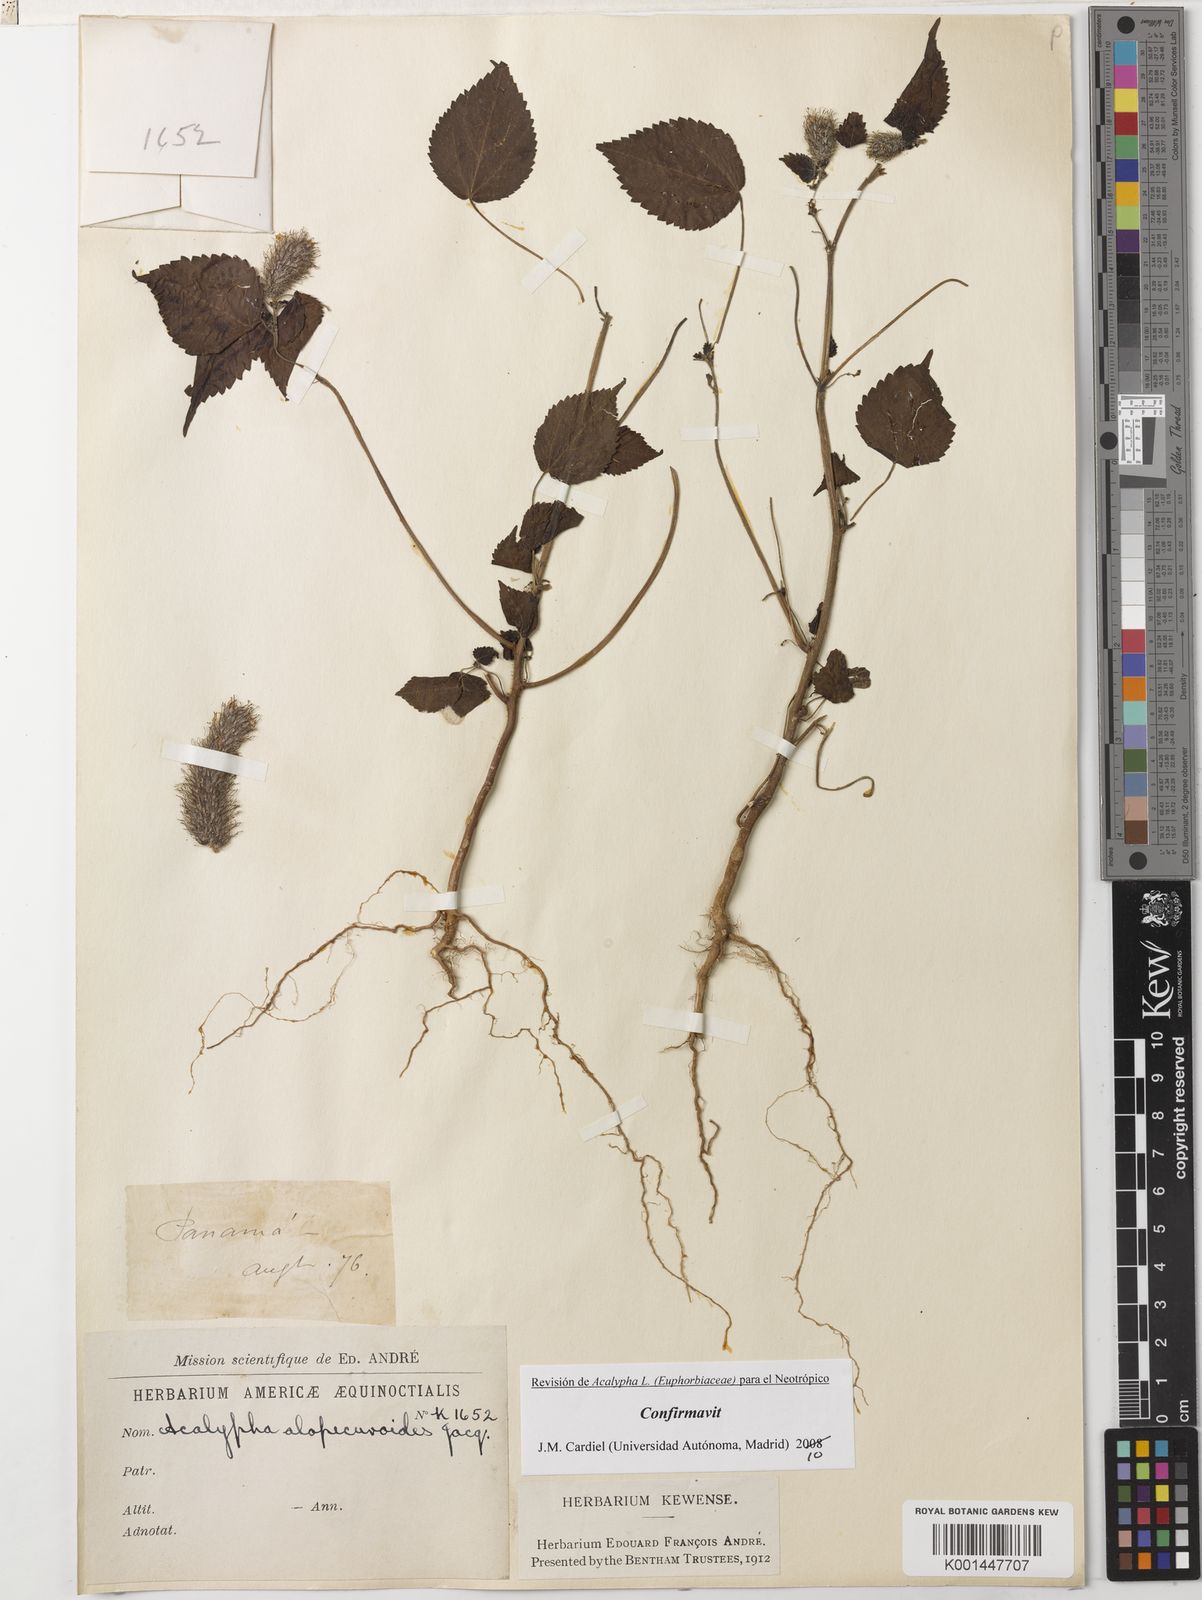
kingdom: Plantae
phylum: Tracheophyta
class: Magnoliopsida
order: Malpighiales
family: Euphorbiaceae
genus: Acalypha
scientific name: Acalypha alopecuroidea
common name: Foxtail copperleaf
